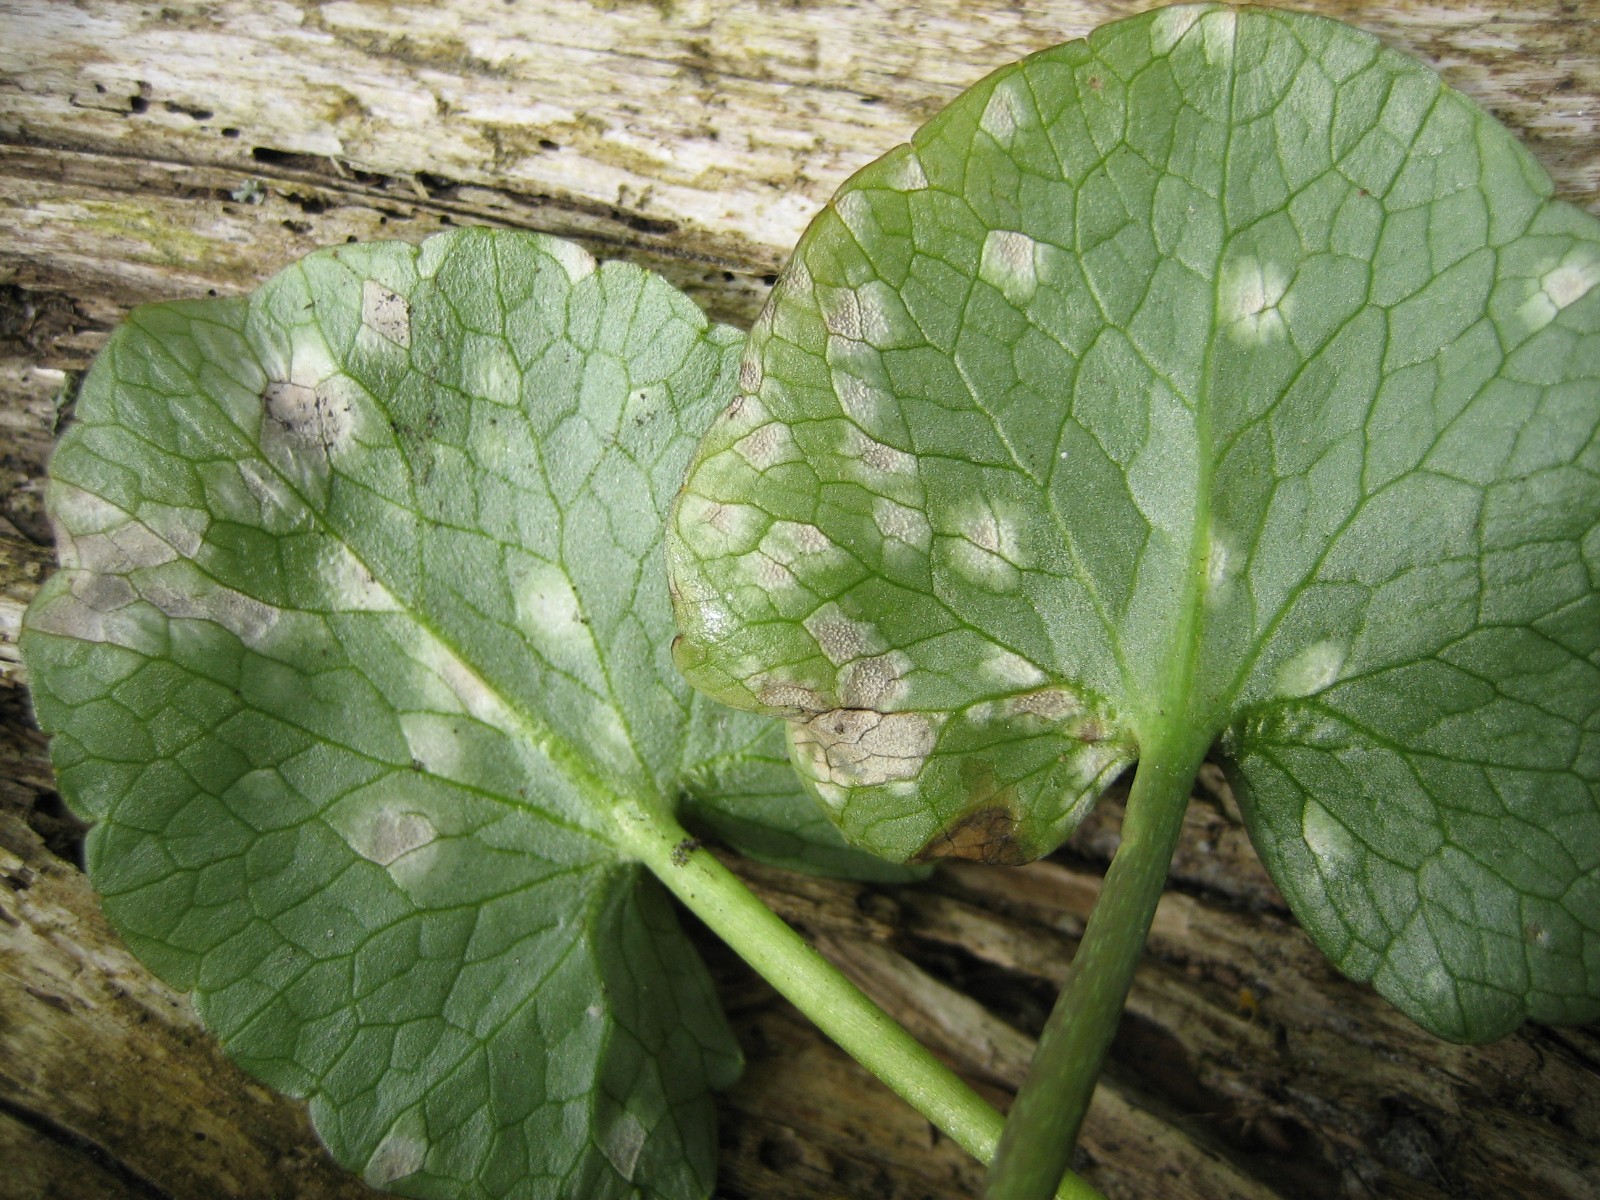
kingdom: Fungi
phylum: Basidiomycota
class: Exobasidiomycetes
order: Entylomatales
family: Entylomataceae
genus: Entyloma
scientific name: Entyloma ficariae
